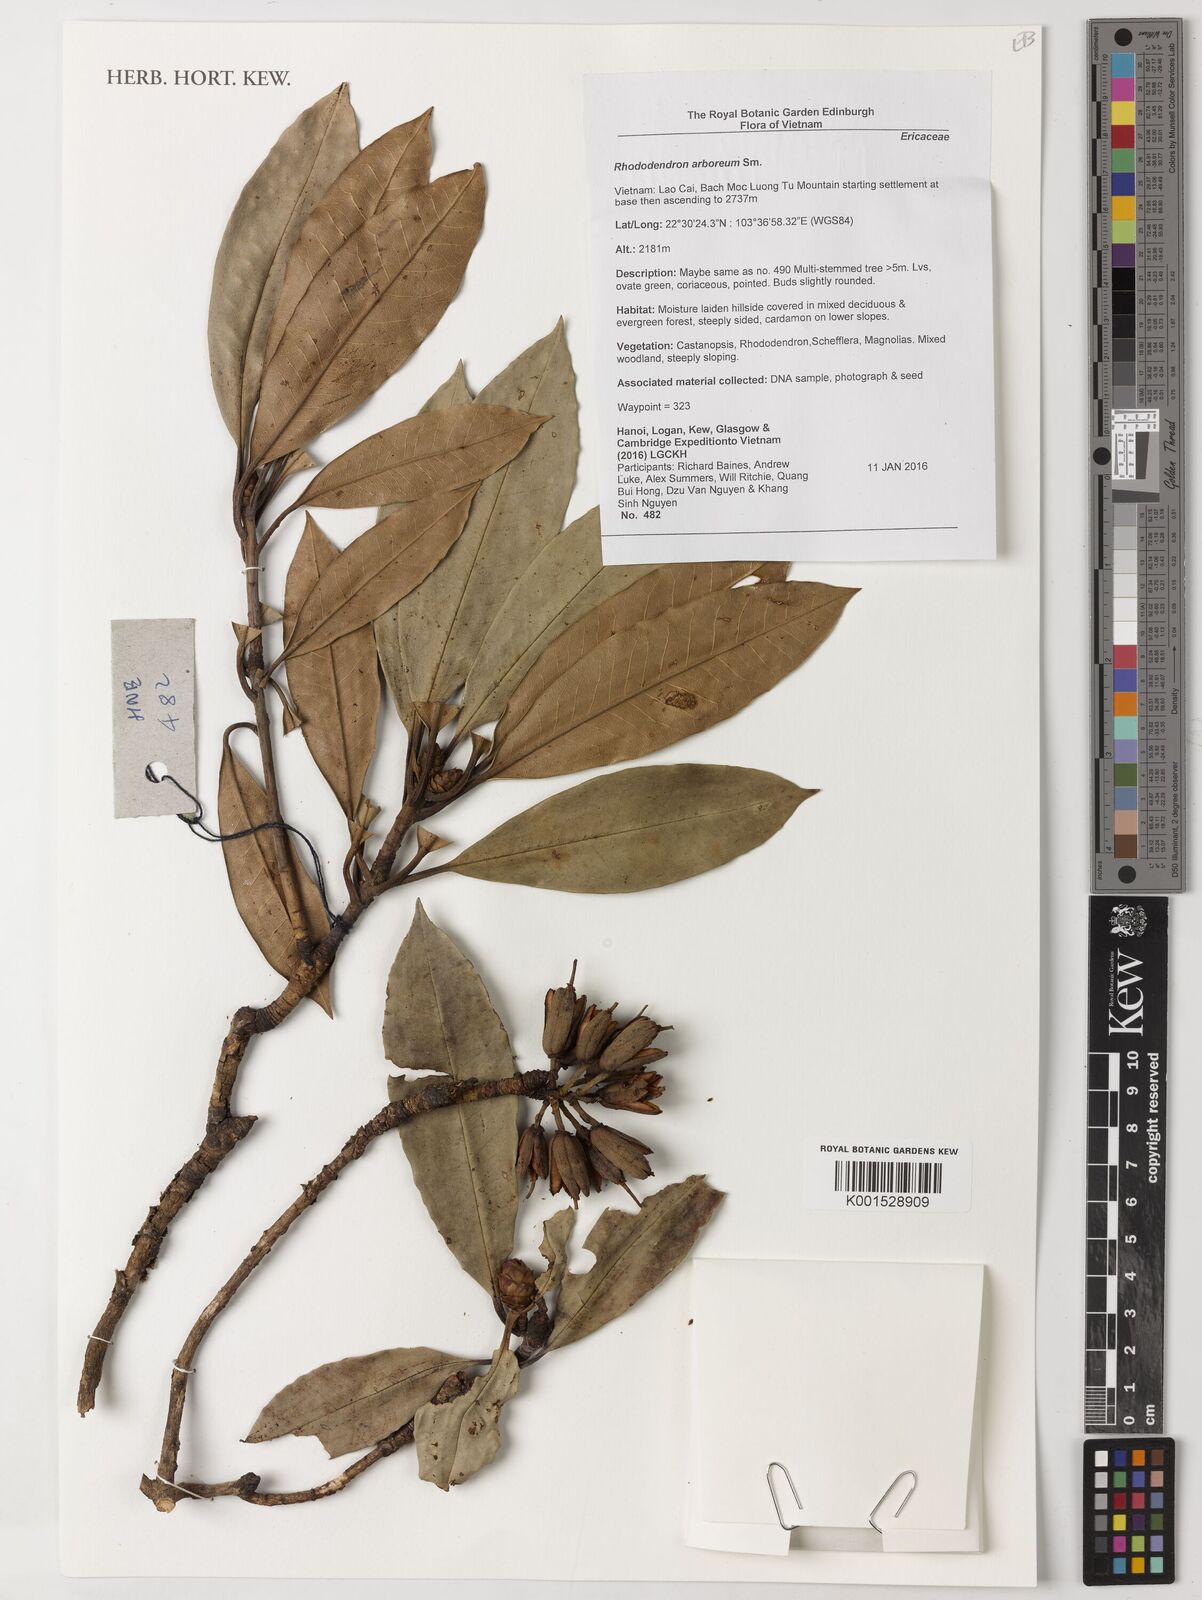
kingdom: Plantae
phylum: Tracheophyta
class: Magnoliopsida
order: Ericales
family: Ericaceae
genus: Rhododendron
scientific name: Rhododendron arboreum
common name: Tree rhododendron
